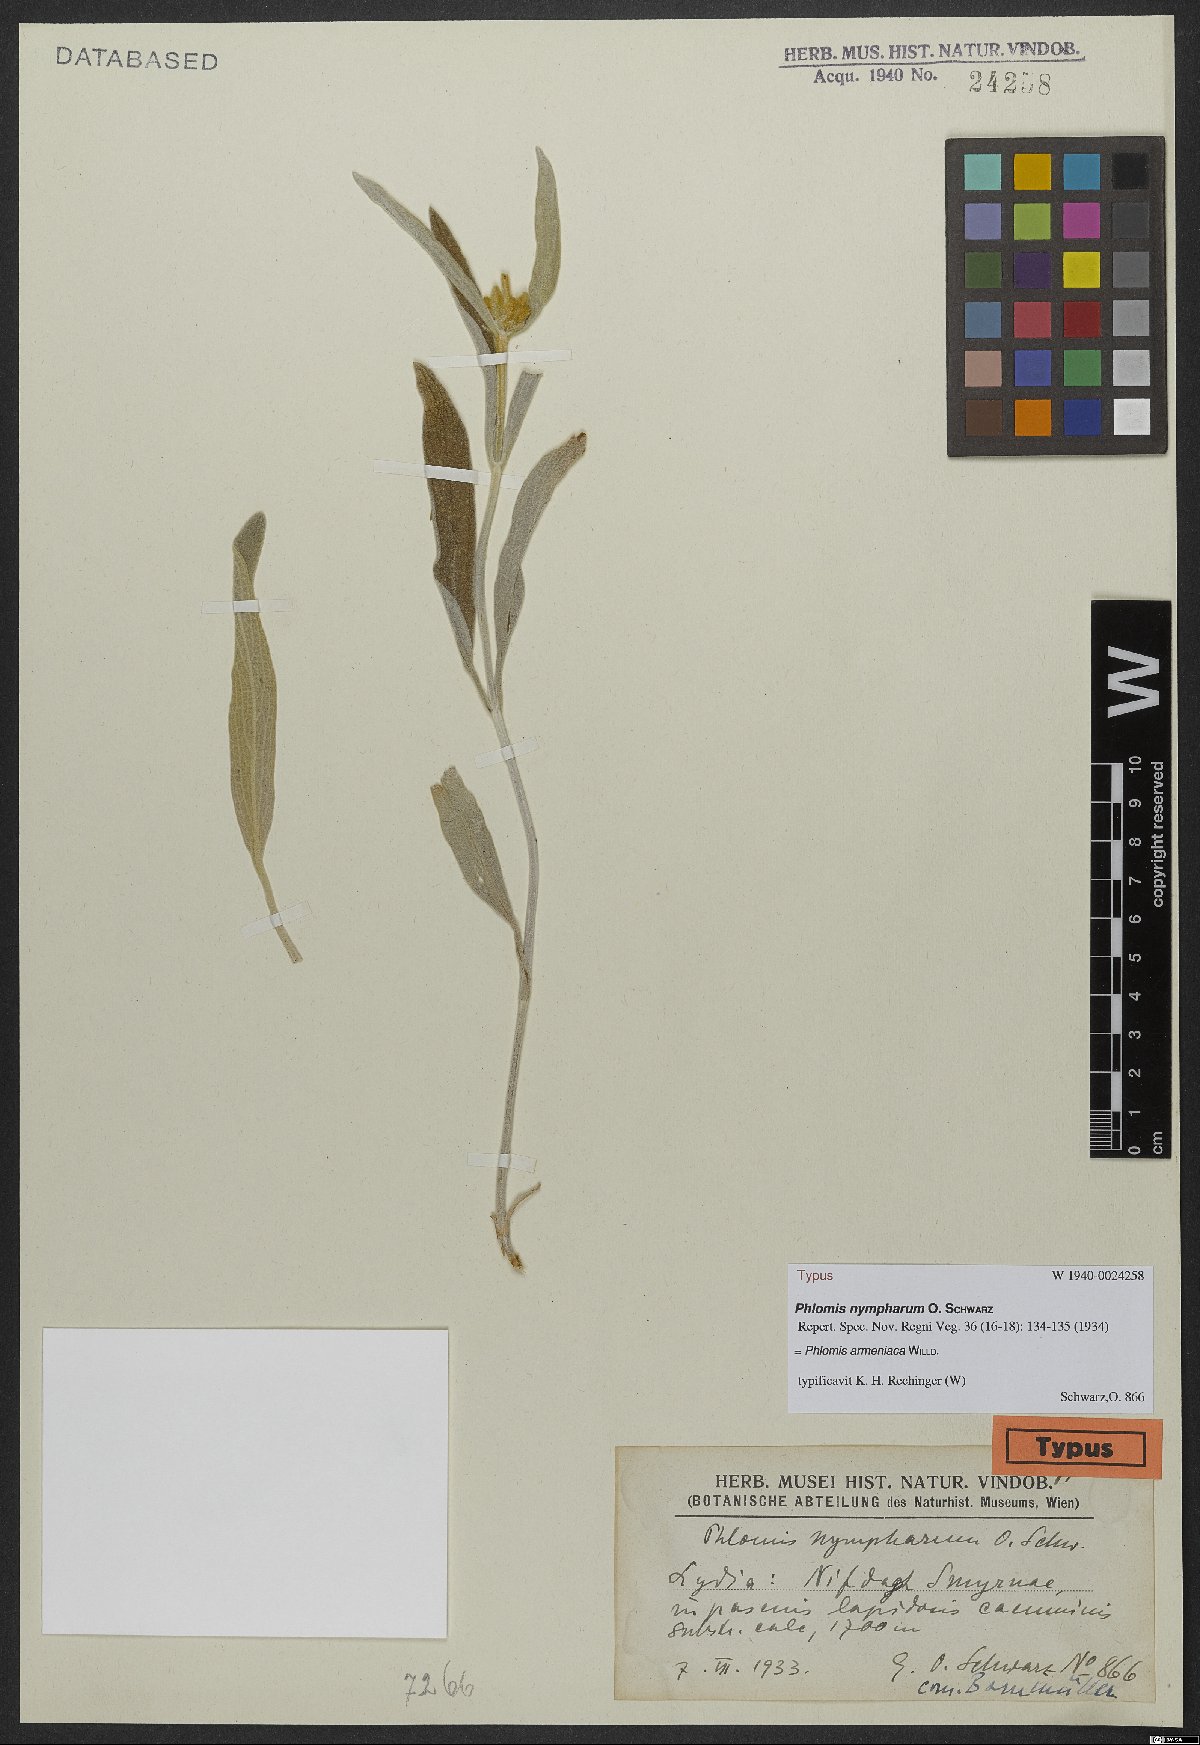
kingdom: Plantae
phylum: Tracheophyta
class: Magnoliopsida
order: Lamiales
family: Lamiaceae
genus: Phlomis
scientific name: Phlomis armeniaca
